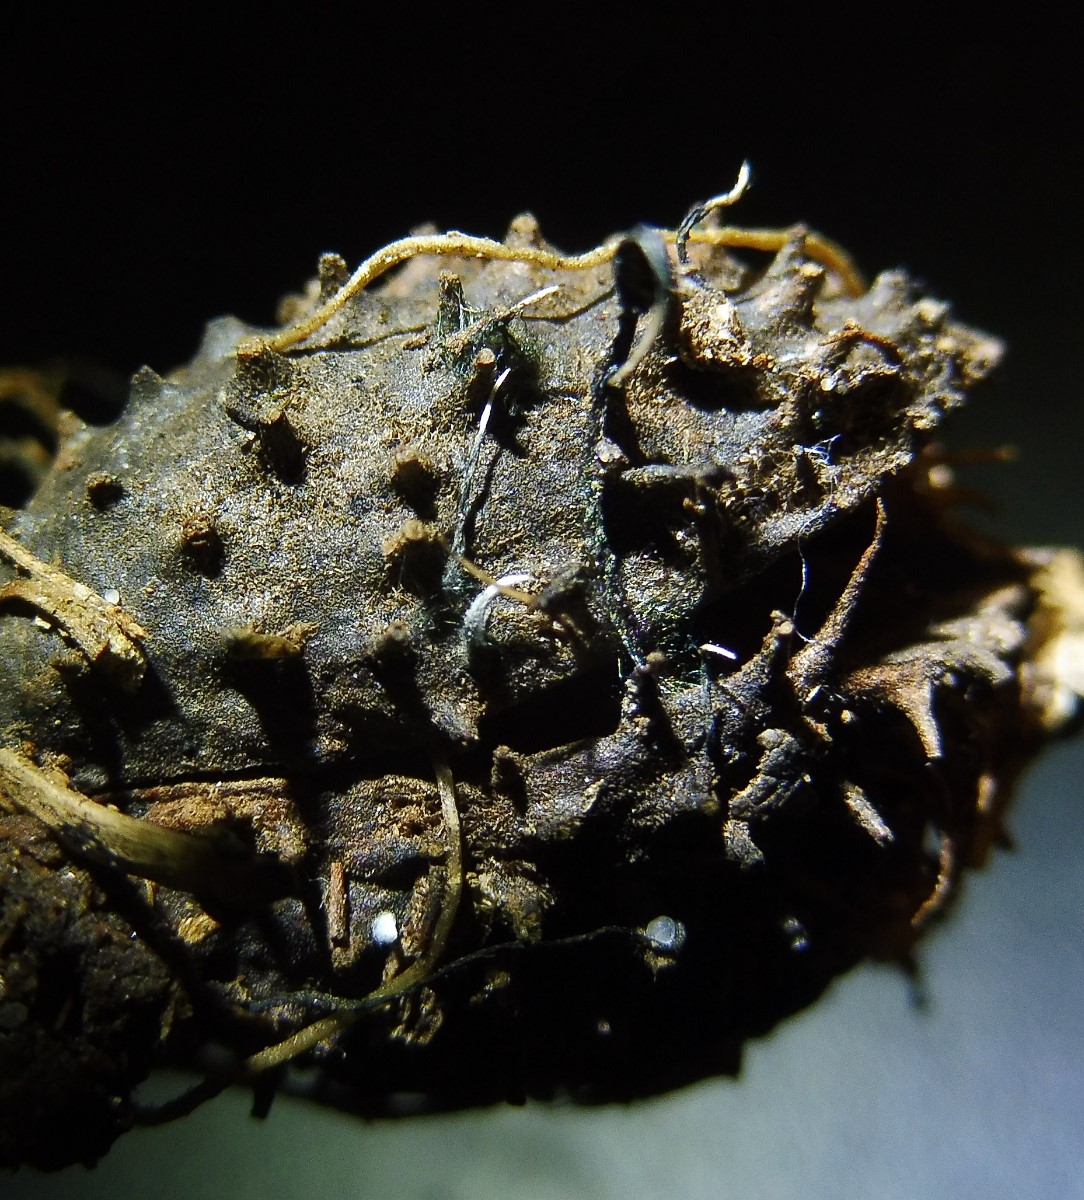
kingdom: Fungi
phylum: Ascomycota
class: Sordariomycetes
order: Xylariales
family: Xylariaceae
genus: Xylaria
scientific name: Xylaria carpophila
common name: bogskål-stødsvamp
